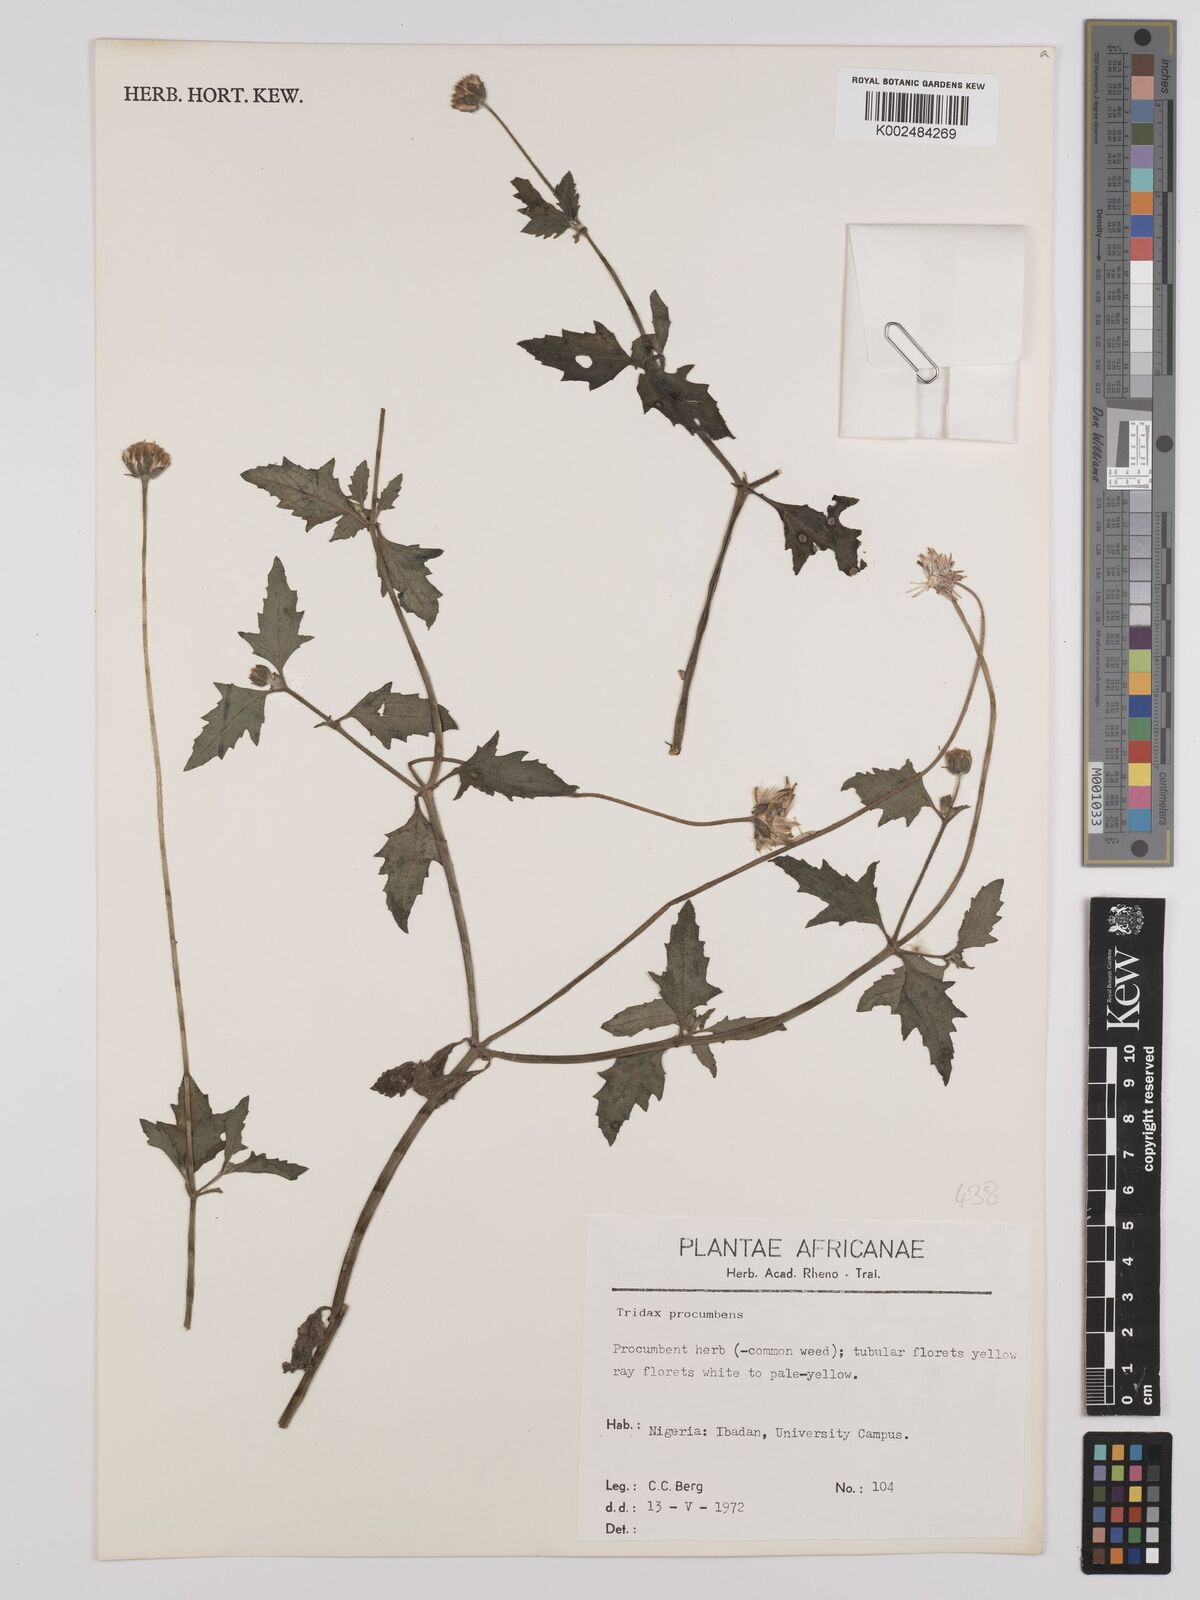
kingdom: Plantae
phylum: Tracheophyta
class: Magnoliopsida
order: Asterales
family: Asteraceae
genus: Tridax
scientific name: Tridax procumbens
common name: Coatbuttons
